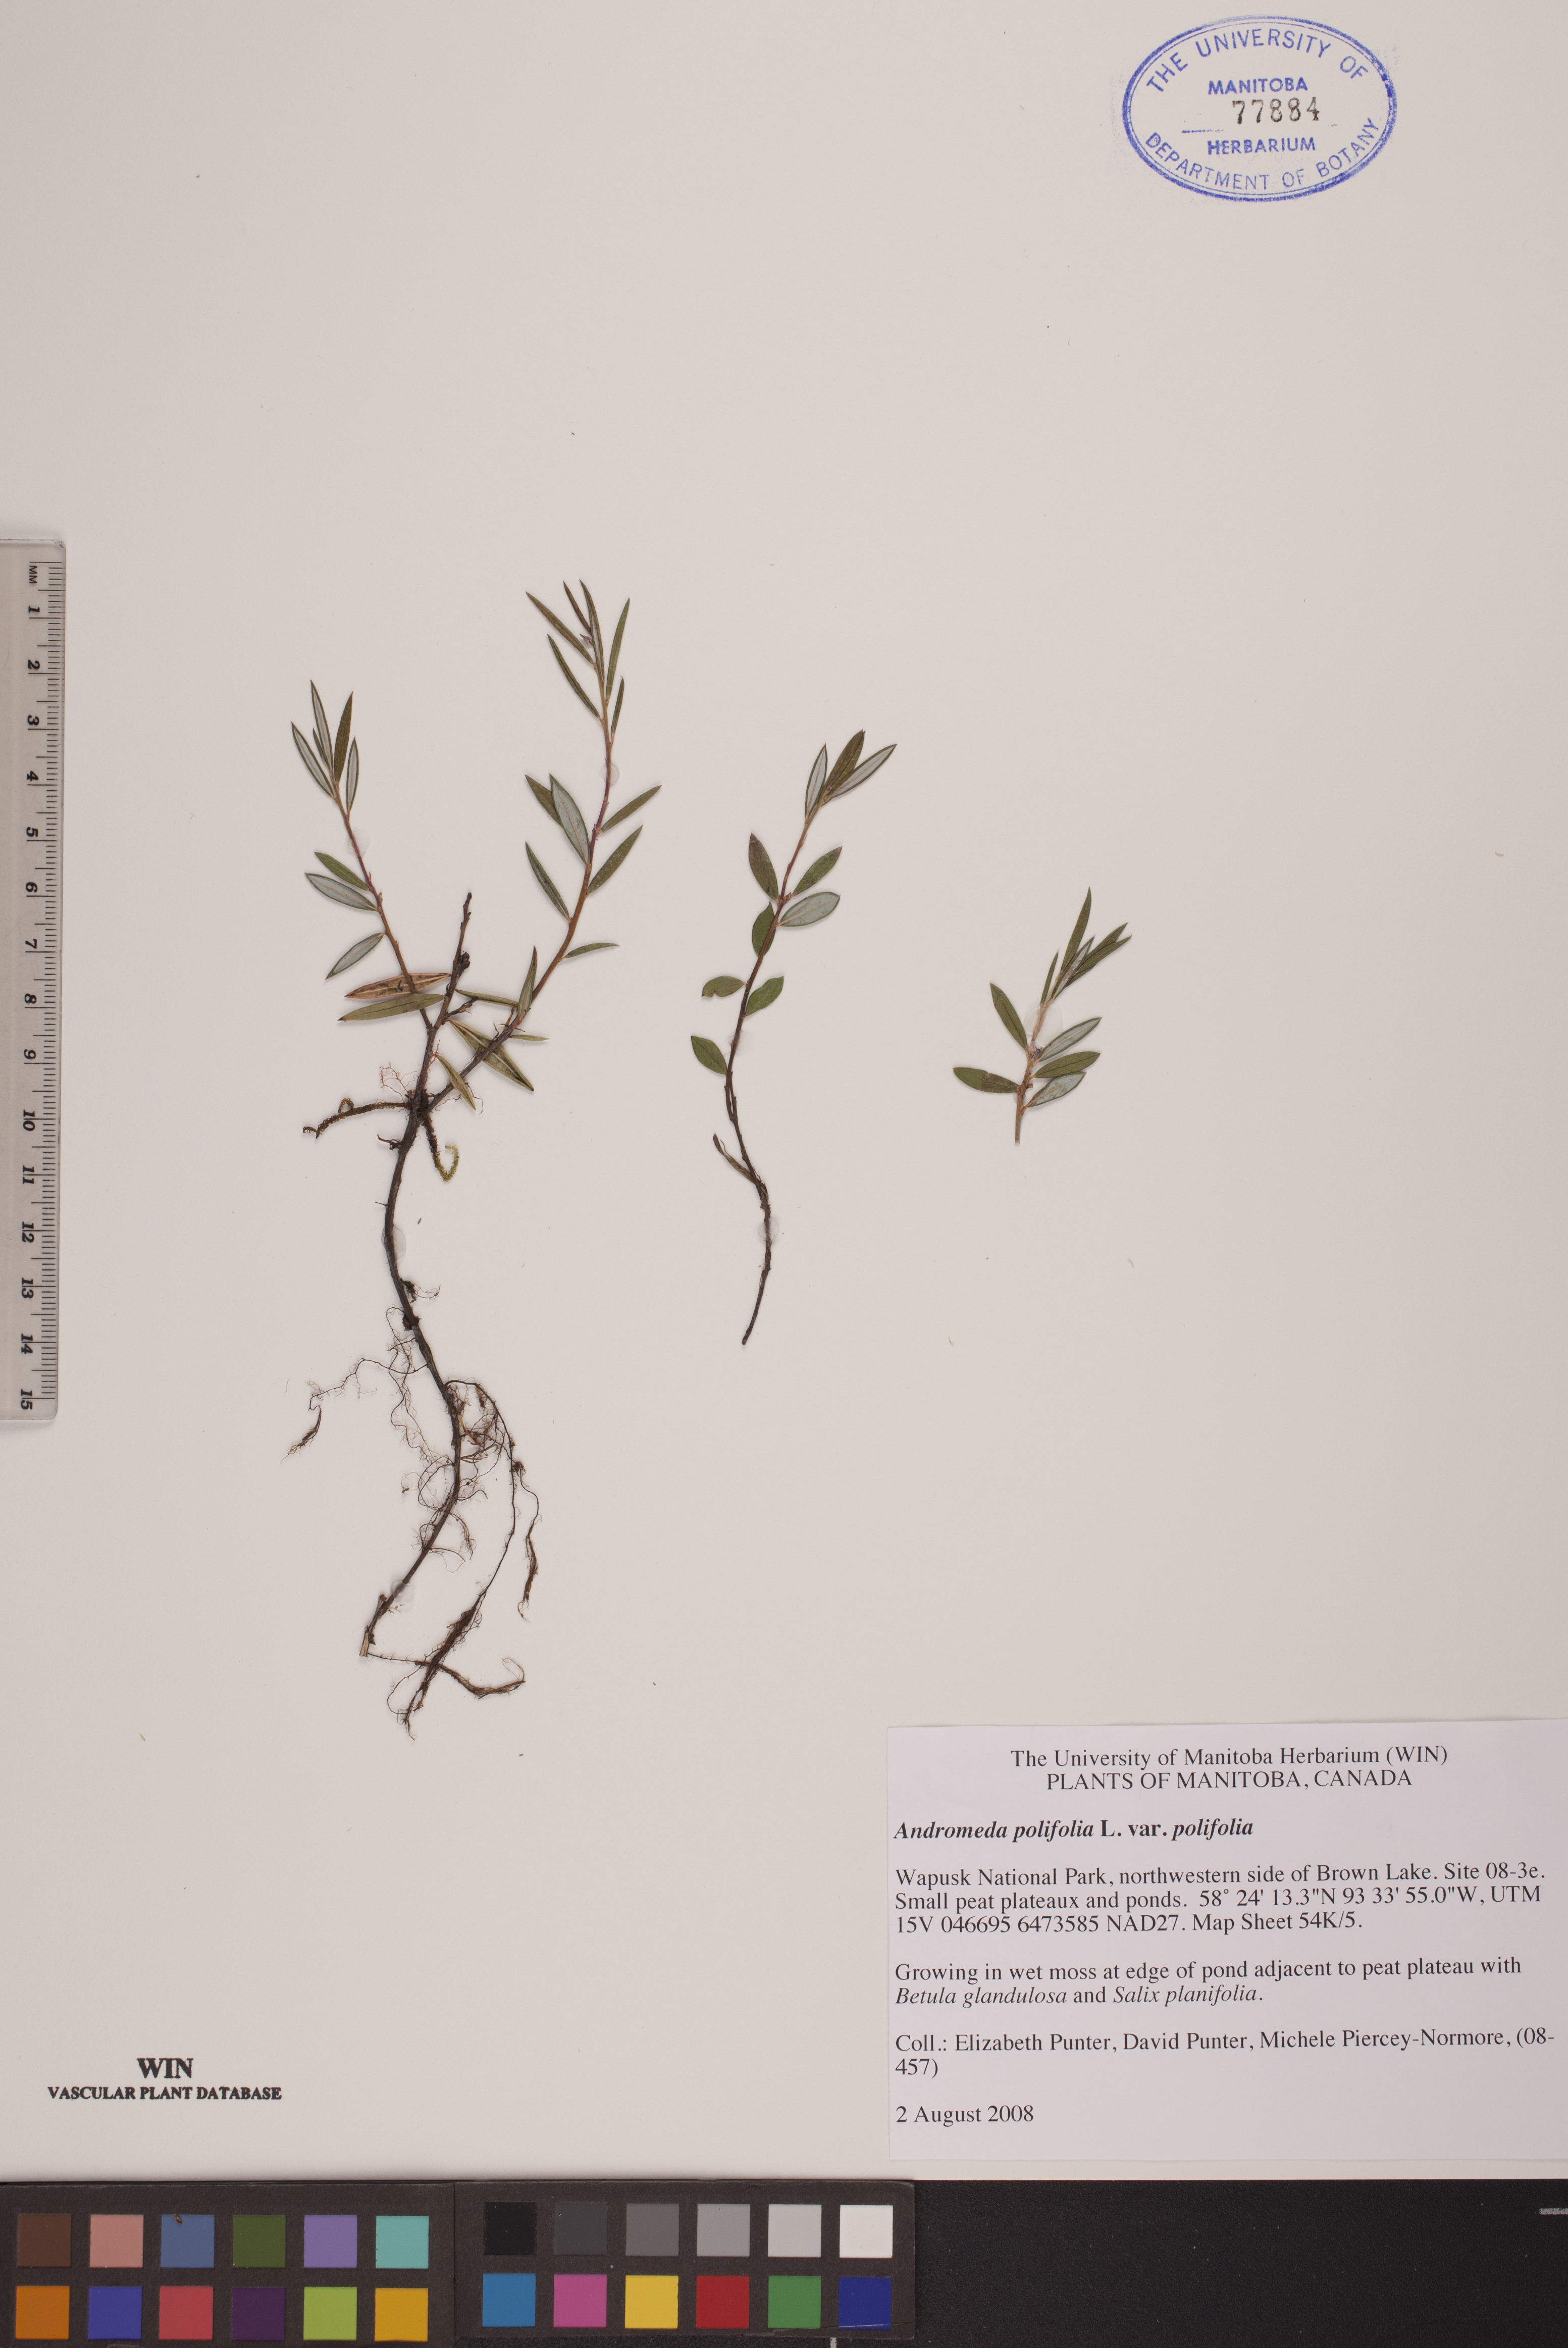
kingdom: Plantae
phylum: Tracheophyta
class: Magnoliopsida
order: Ericales
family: Ericaceae
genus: Andromeda
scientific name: Andromeda polifolia
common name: Bog-rosemary
